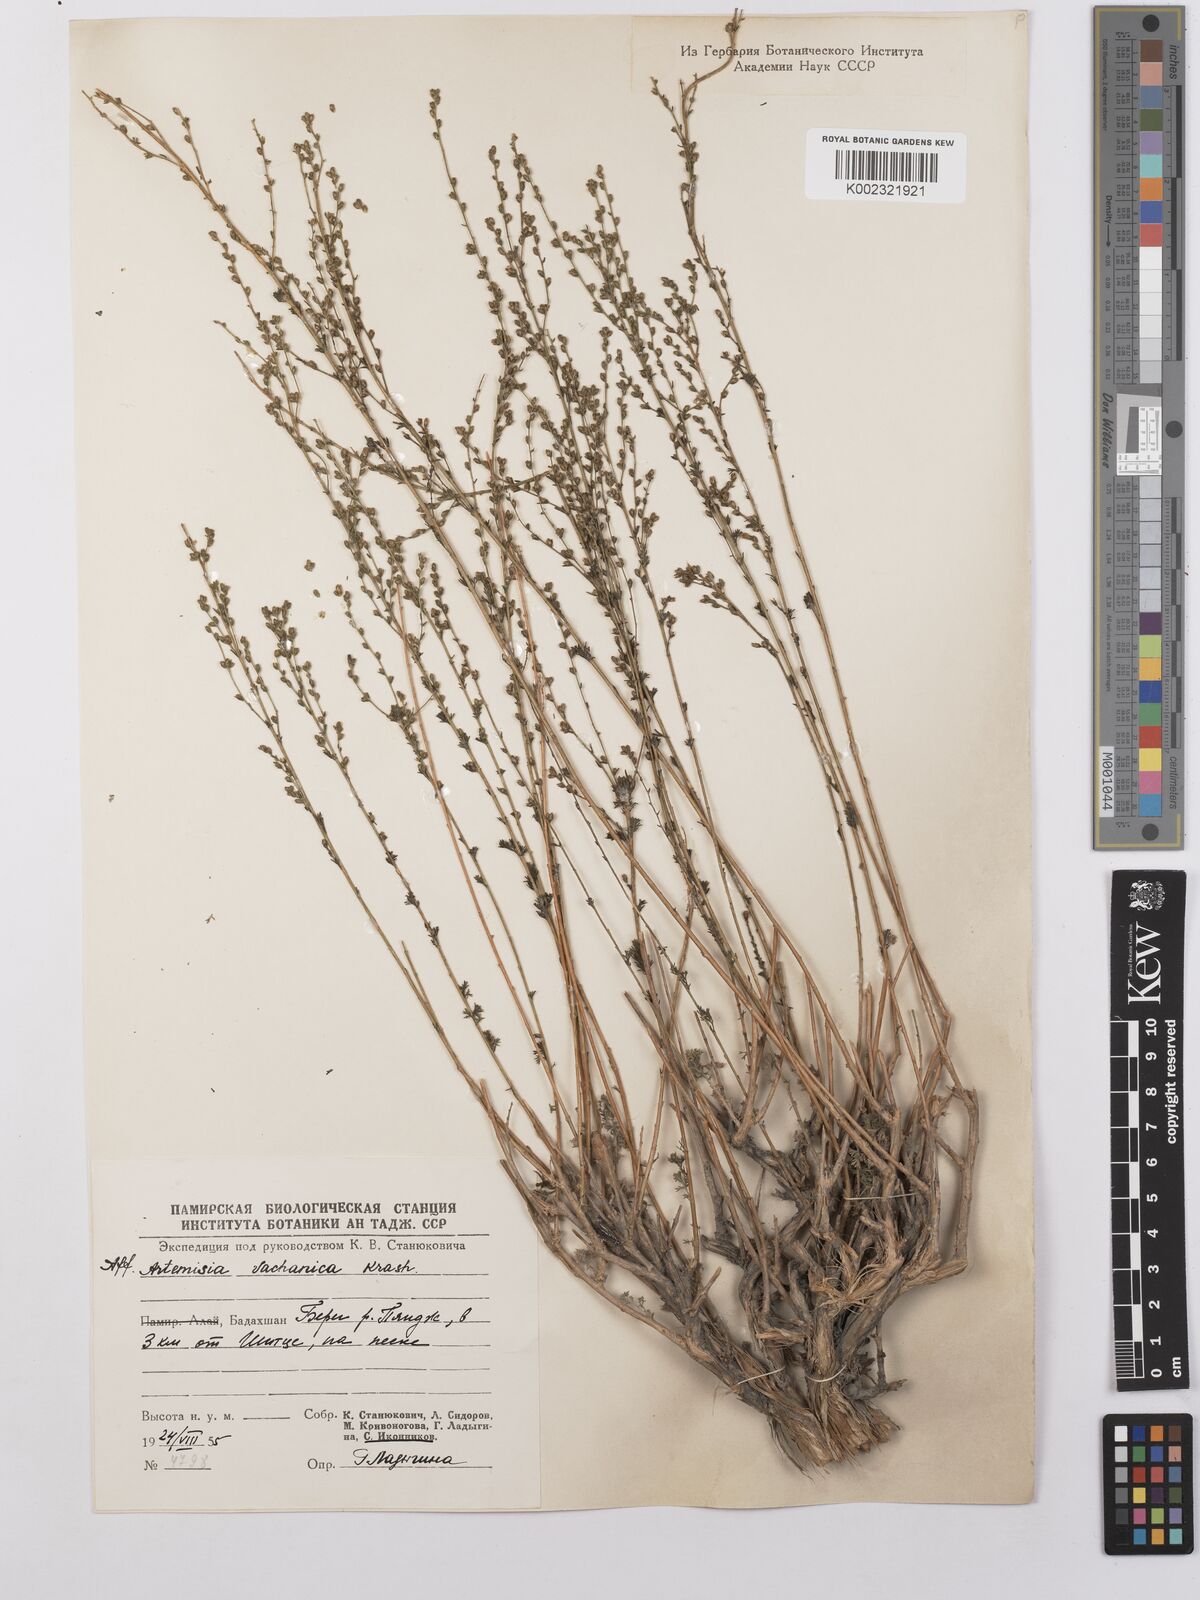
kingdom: Plantae
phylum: Tracheophyta
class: Magnoliopsida
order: Asterales
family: Asteraceae
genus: Artemisia
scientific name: Artemisia vachanica
